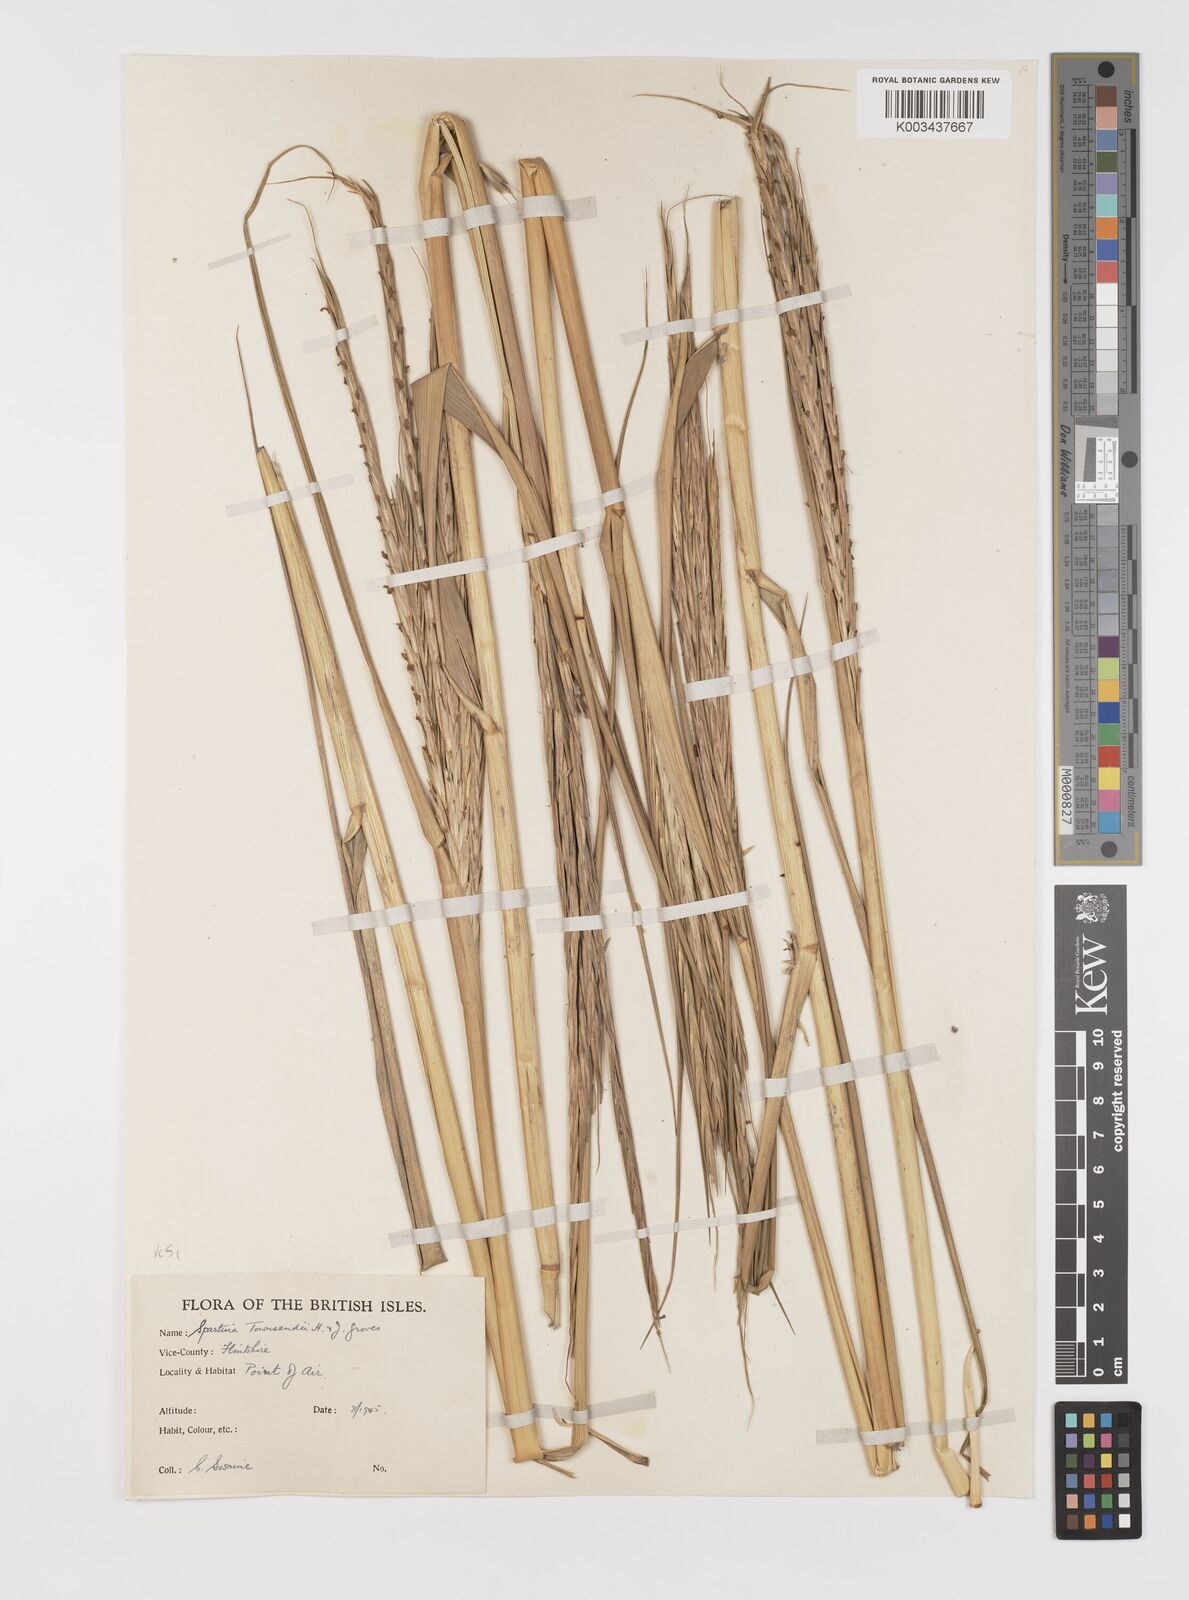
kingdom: Plantae
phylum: Tracheophyta
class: Liliopsida
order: Poales
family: Poaceae
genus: Sporobolus
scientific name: Sporobolus anglicus
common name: English cordgrass
